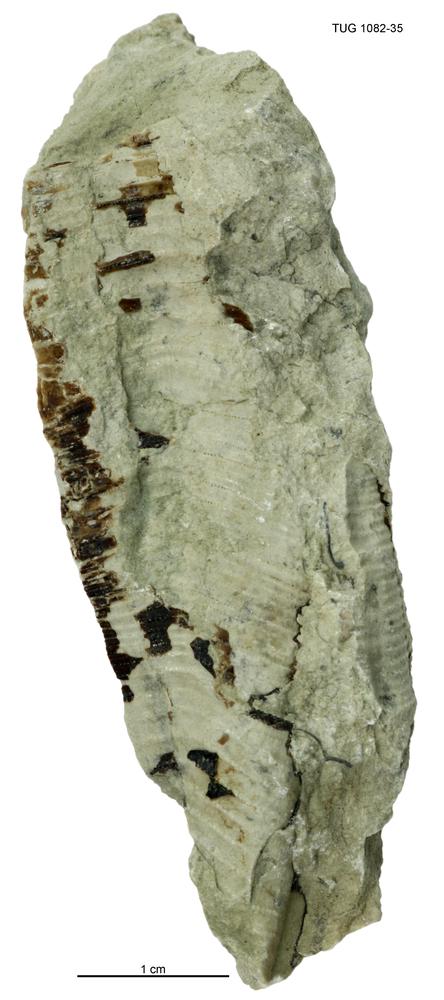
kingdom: Animalia
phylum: Cnidaria
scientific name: Cnidaria
